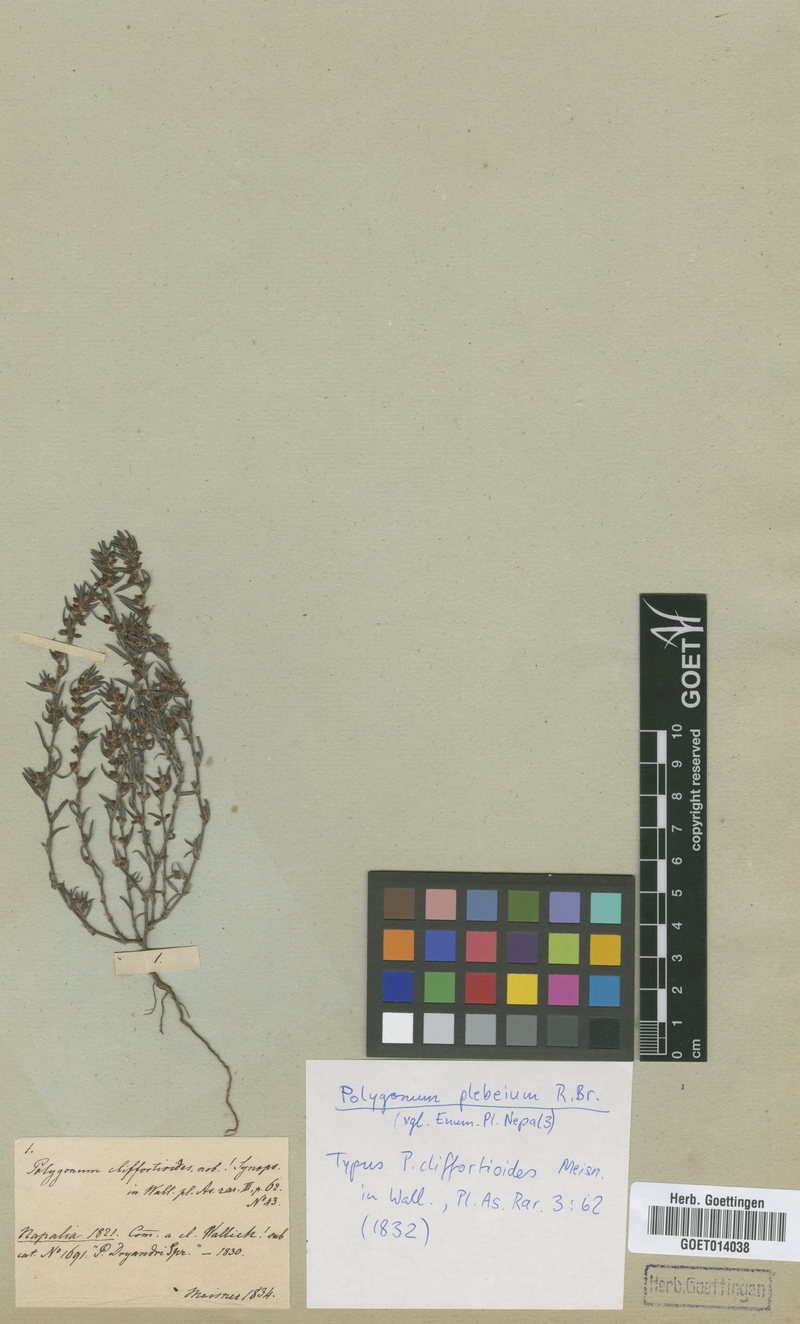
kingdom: Plantae
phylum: Tracheophyta
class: Magnoliopsida
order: Caryophyllales
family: Polygonaceae
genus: Polygonum
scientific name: Polygonum plebeium
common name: Common knotweed
